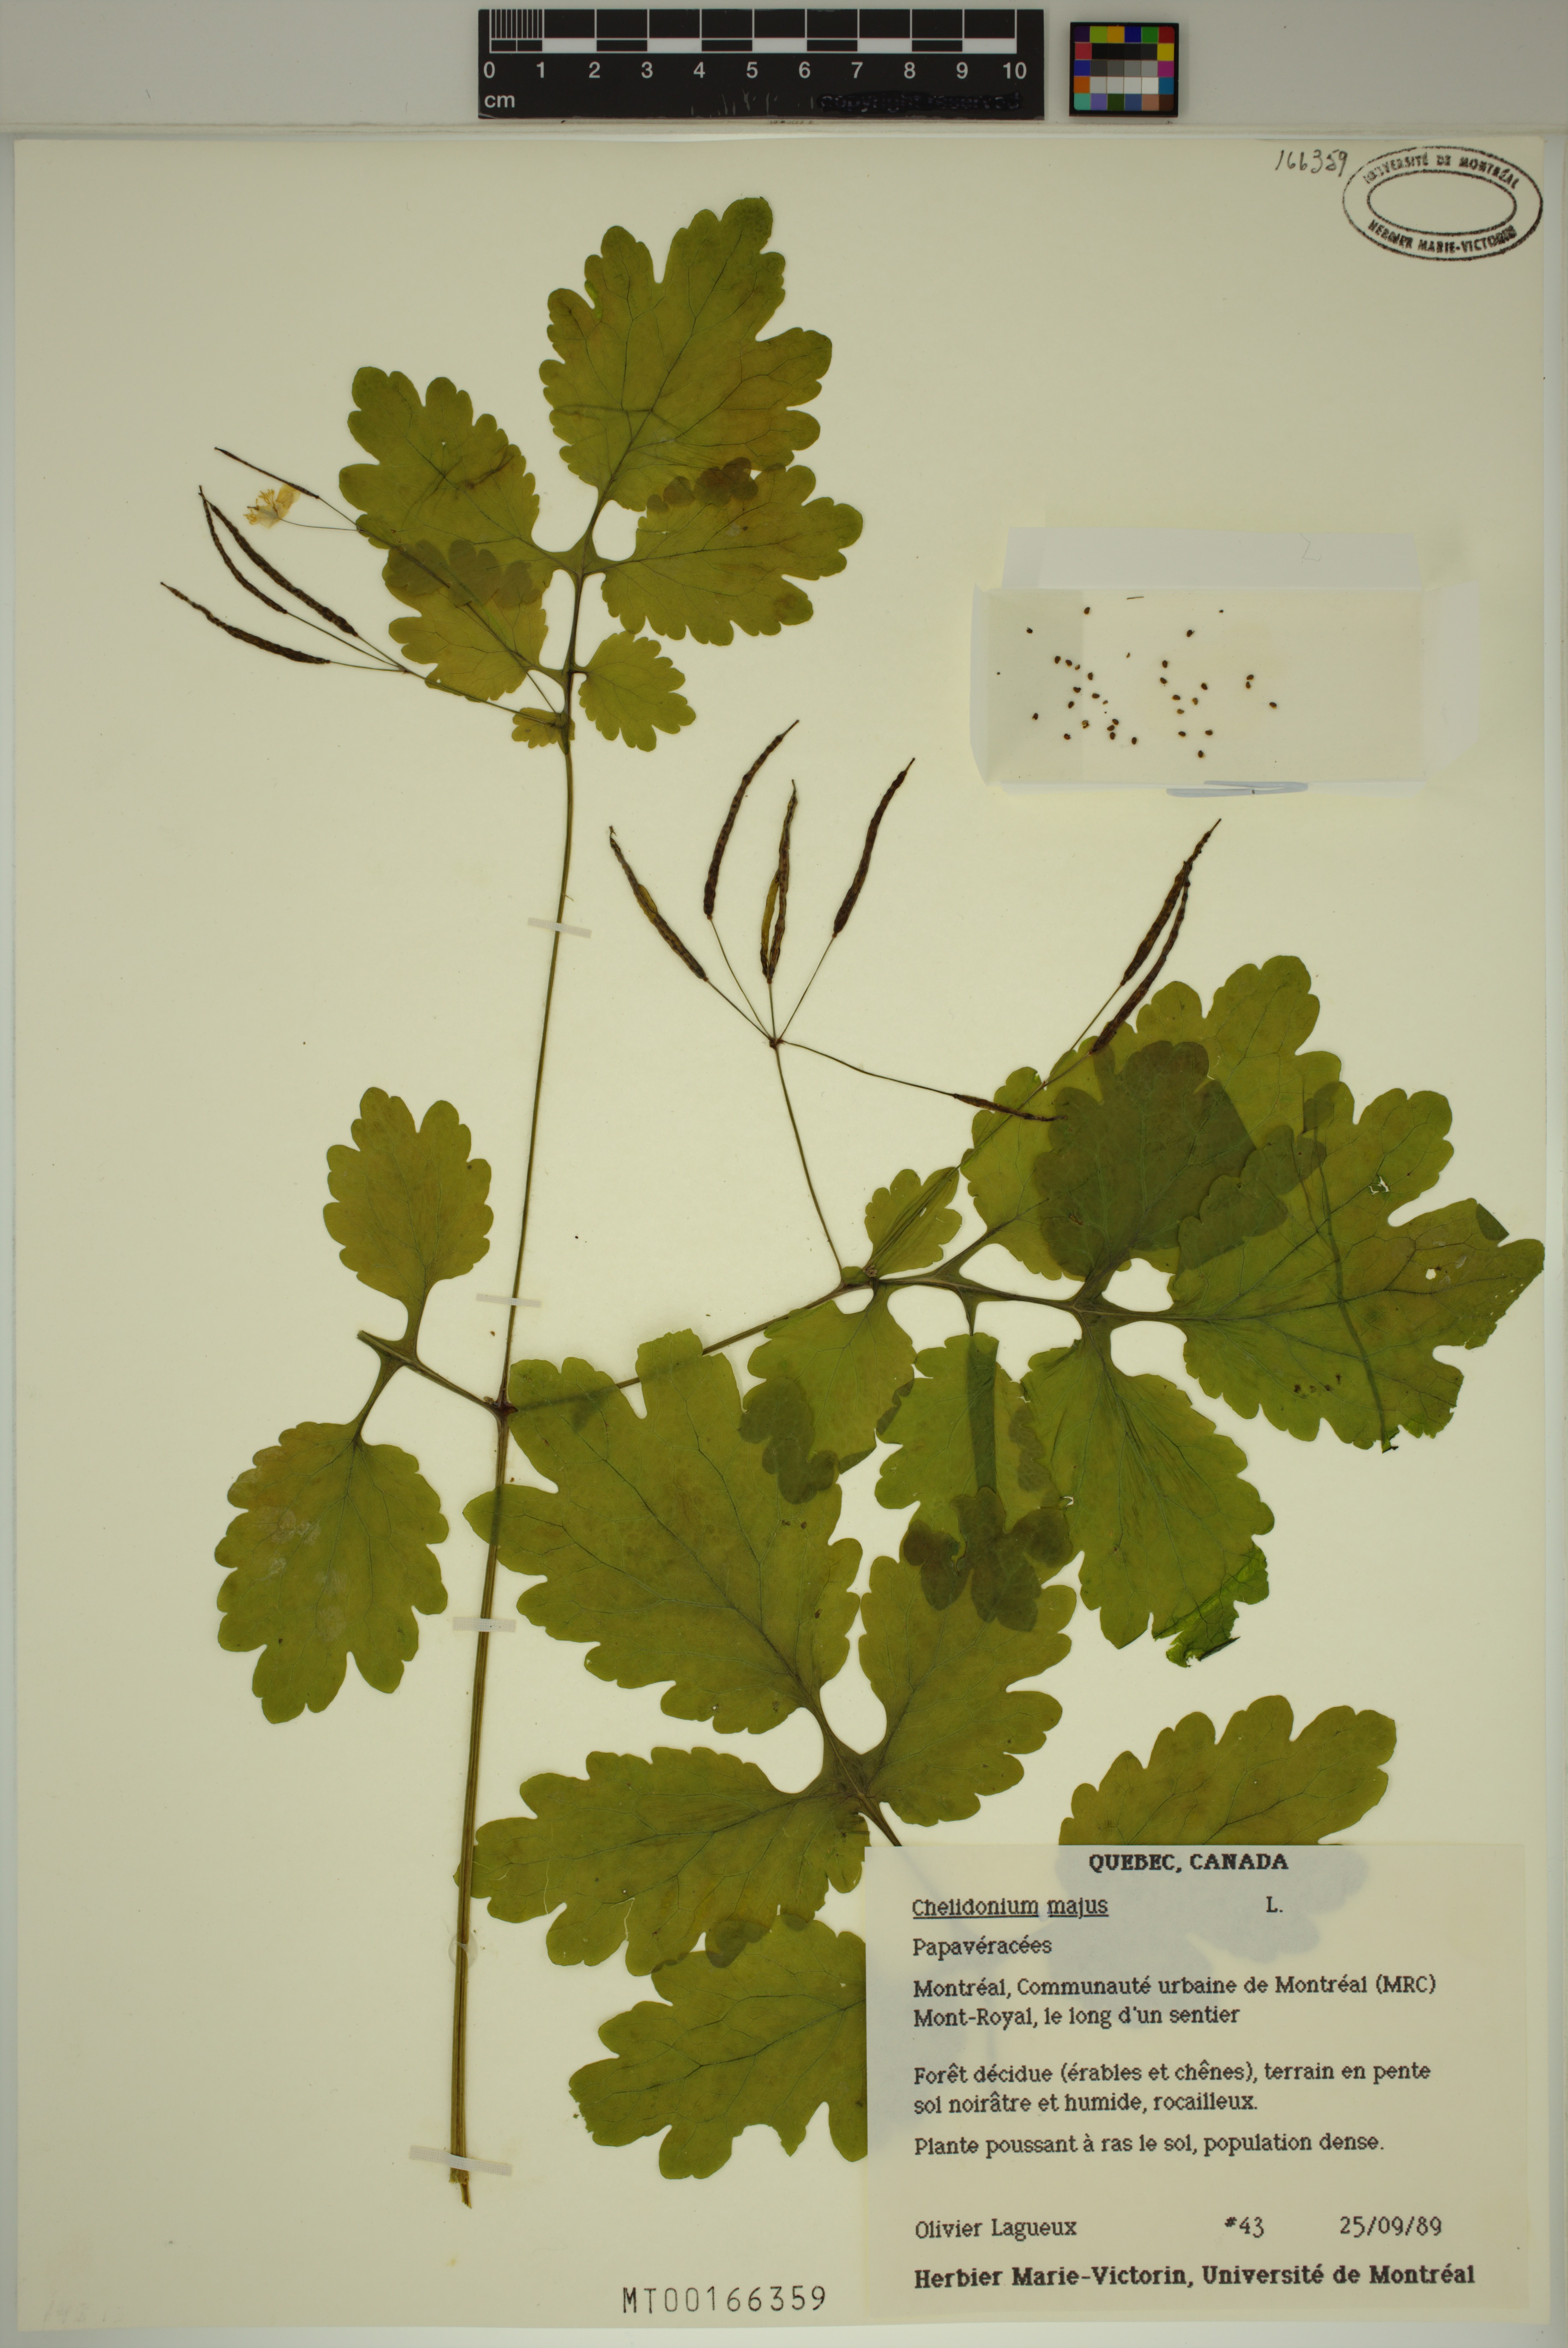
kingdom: Plantae
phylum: Tracheophyta
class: Magnoliopsida
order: Ranunculales
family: Papaveraceae
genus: Chelidonium
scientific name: Chelidonium majus
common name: Greater celandine
